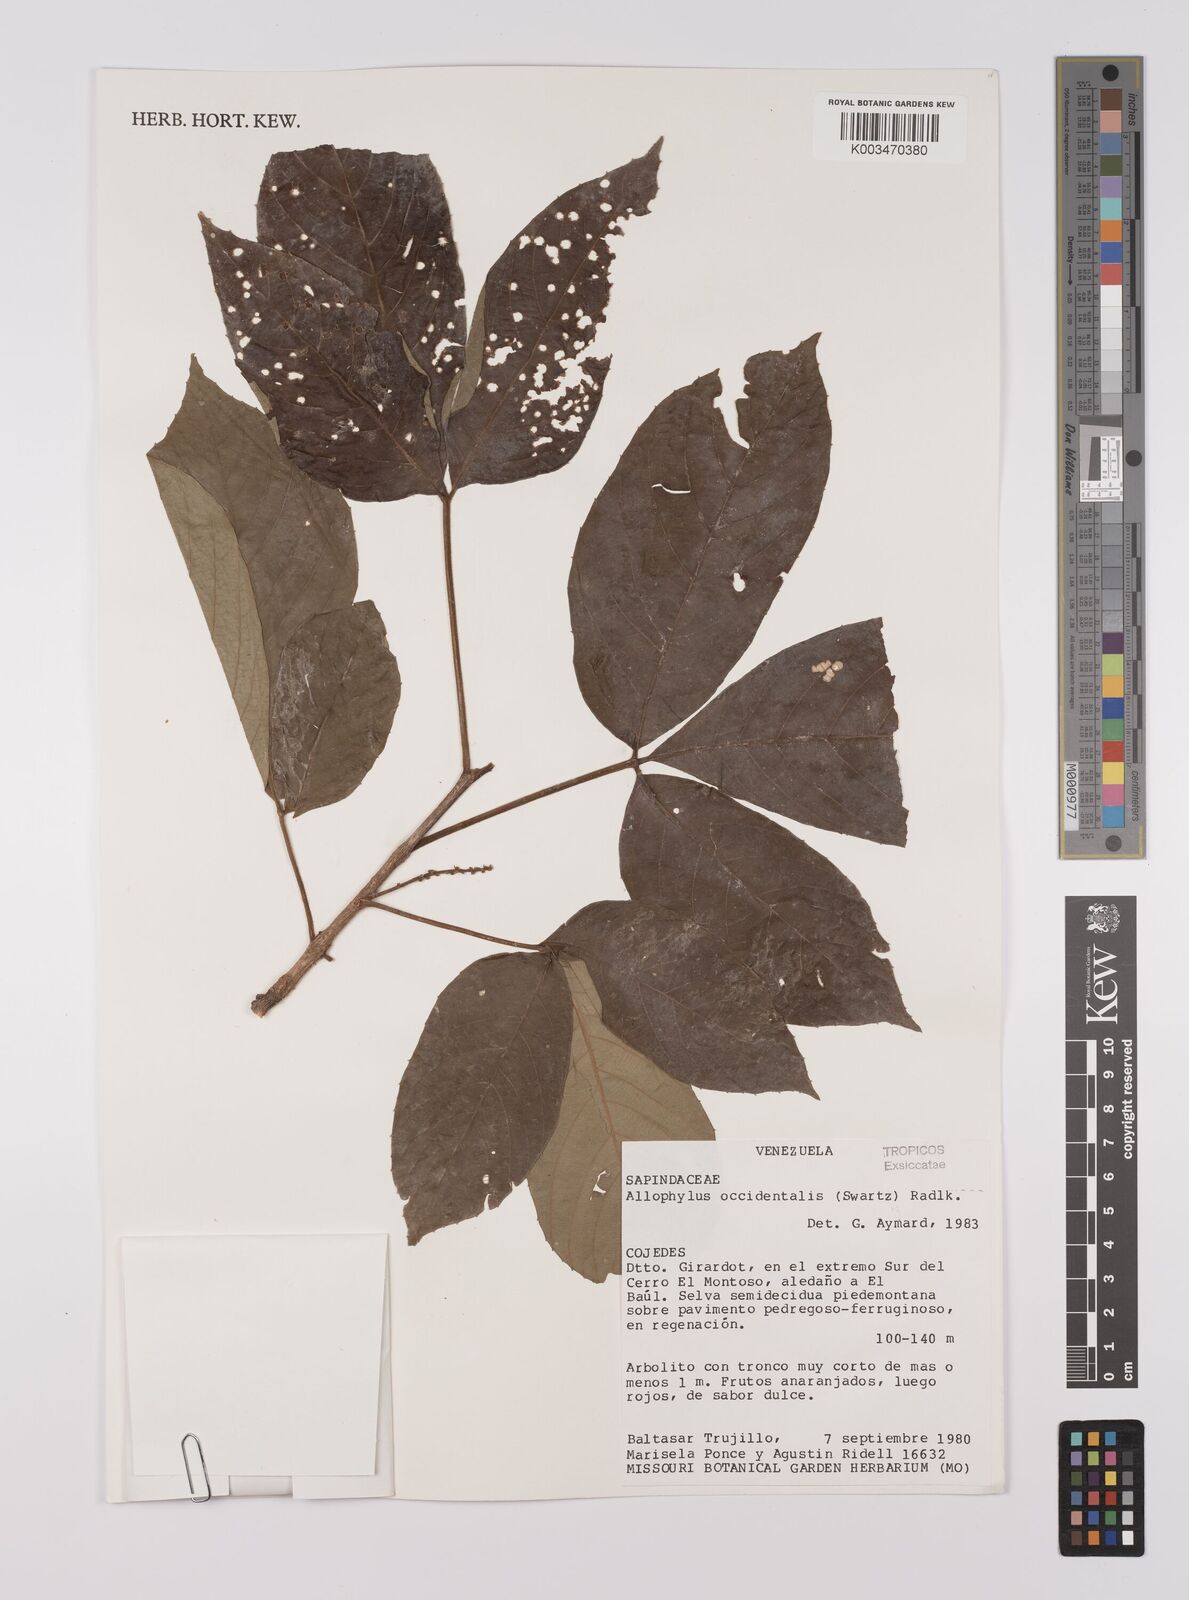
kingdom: Plantae
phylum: Tracheophyta
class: Magnoliopsida
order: Sapindales
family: Sapindaceae
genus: Allophylus
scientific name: Allophylus
